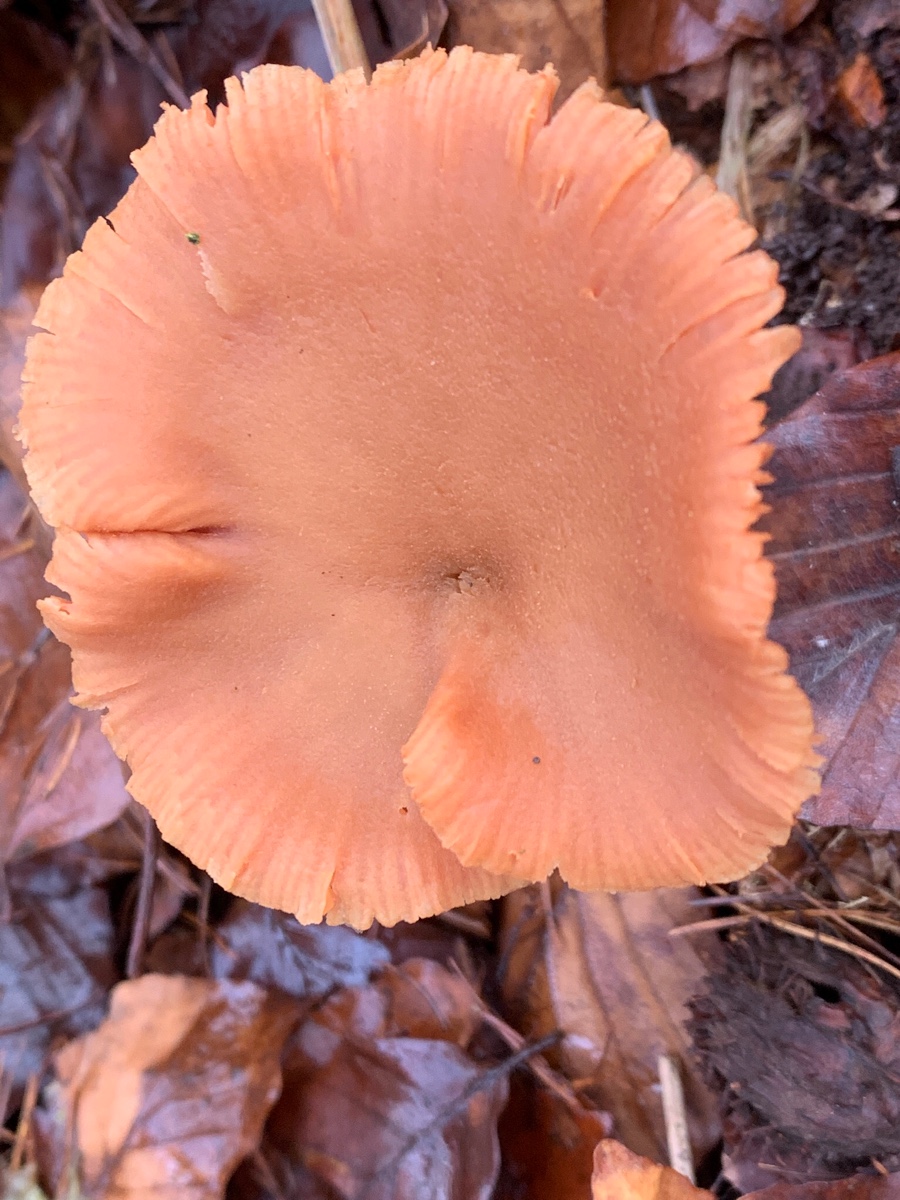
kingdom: Fungi
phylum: Basidiomycota
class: Agaricomycetes
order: Agaricales
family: Hydnangiaceae
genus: Laccaria
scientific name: Laccaria laccata
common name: rød ametysthat
